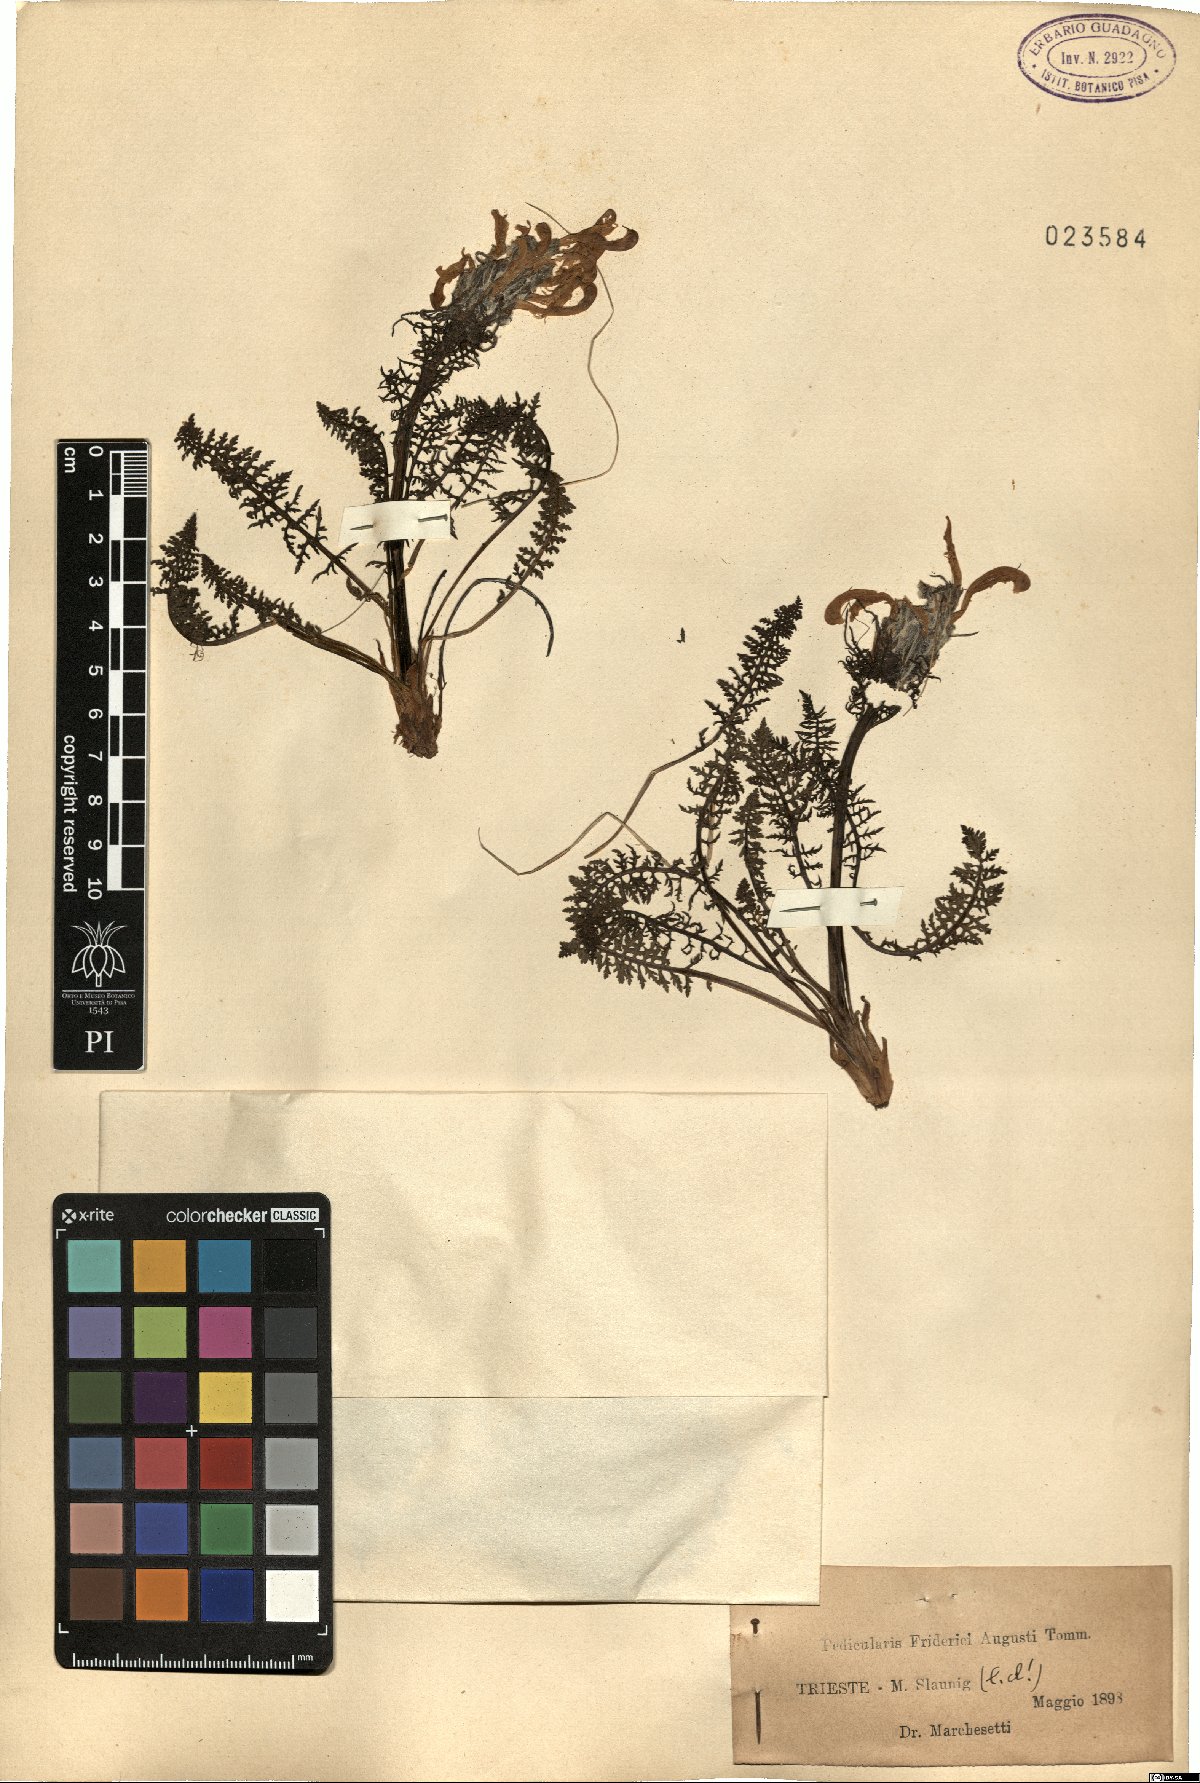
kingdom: Plantae
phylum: Tracheophyta
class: Magnoliopsida
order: Lamiales
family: Orobanchaceae
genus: Pedicularis
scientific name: Pedicularis friderici-augusti
